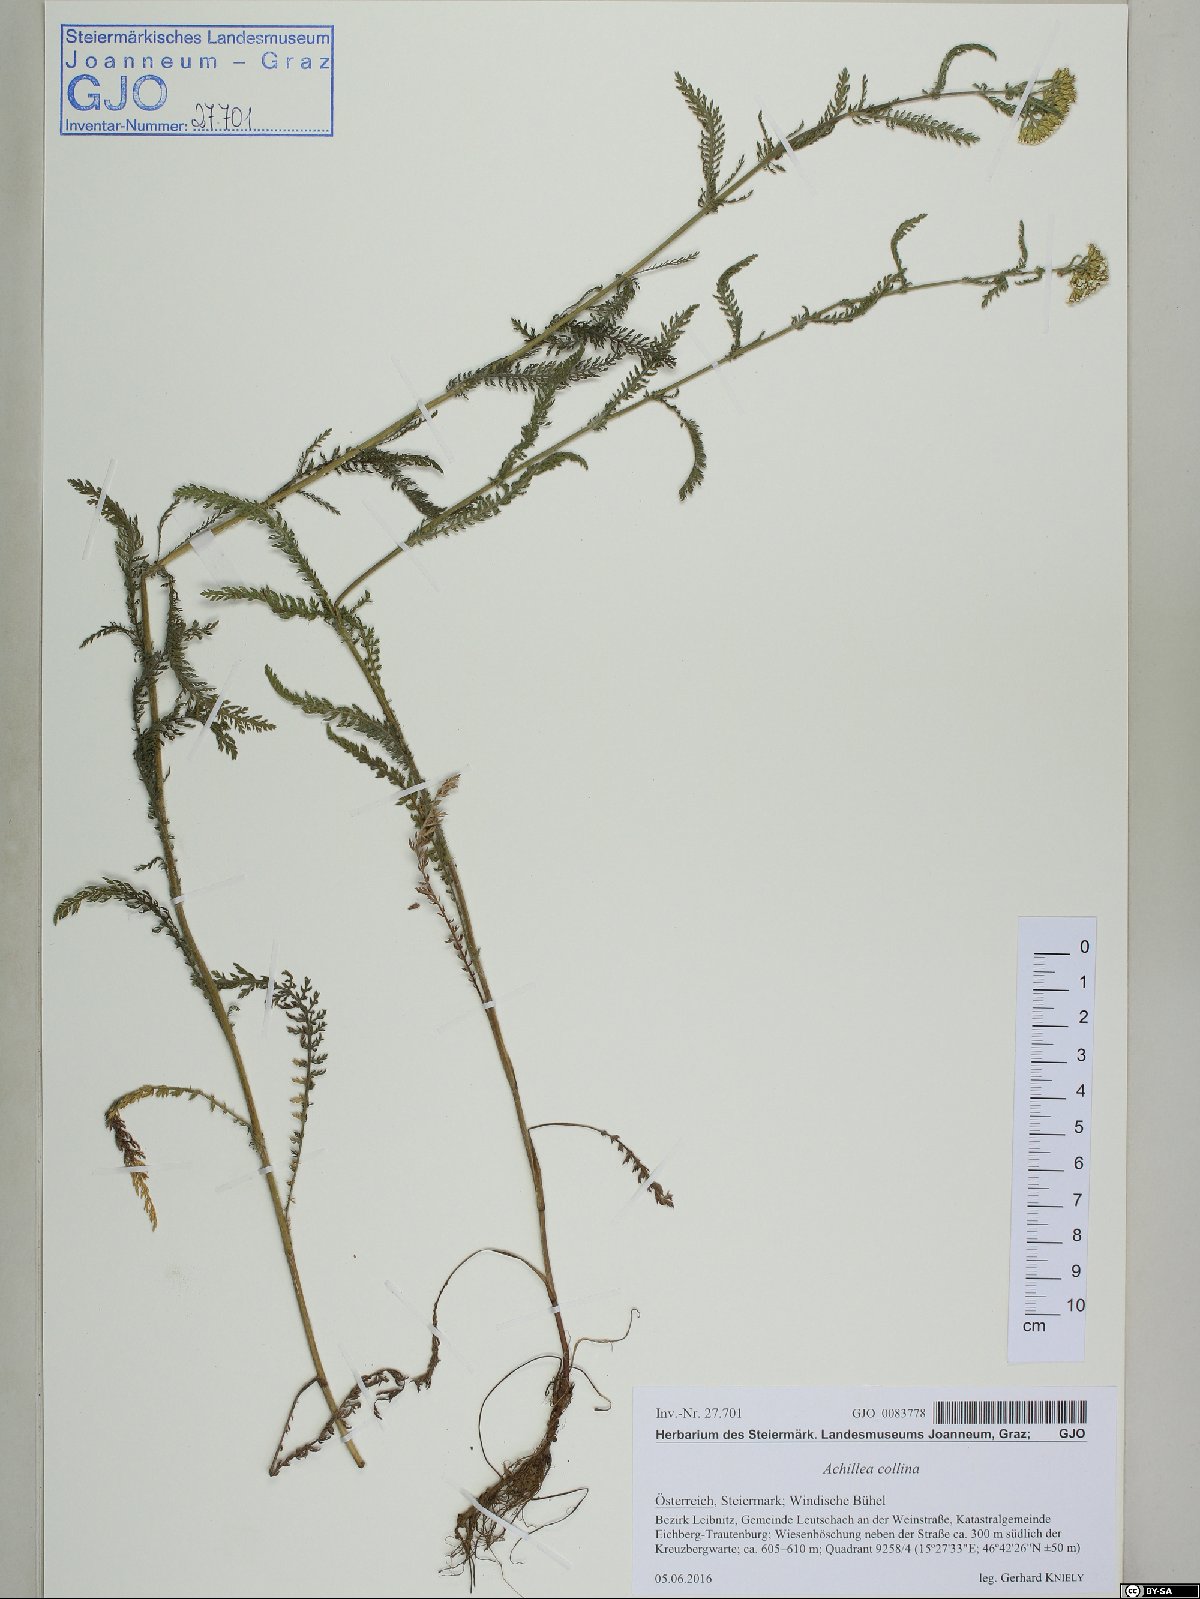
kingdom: Plantae
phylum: Tracheophyta
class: Magnoliopsida
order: Asterales
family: Asteraceae
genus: Achillea
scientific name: Achillea collina
